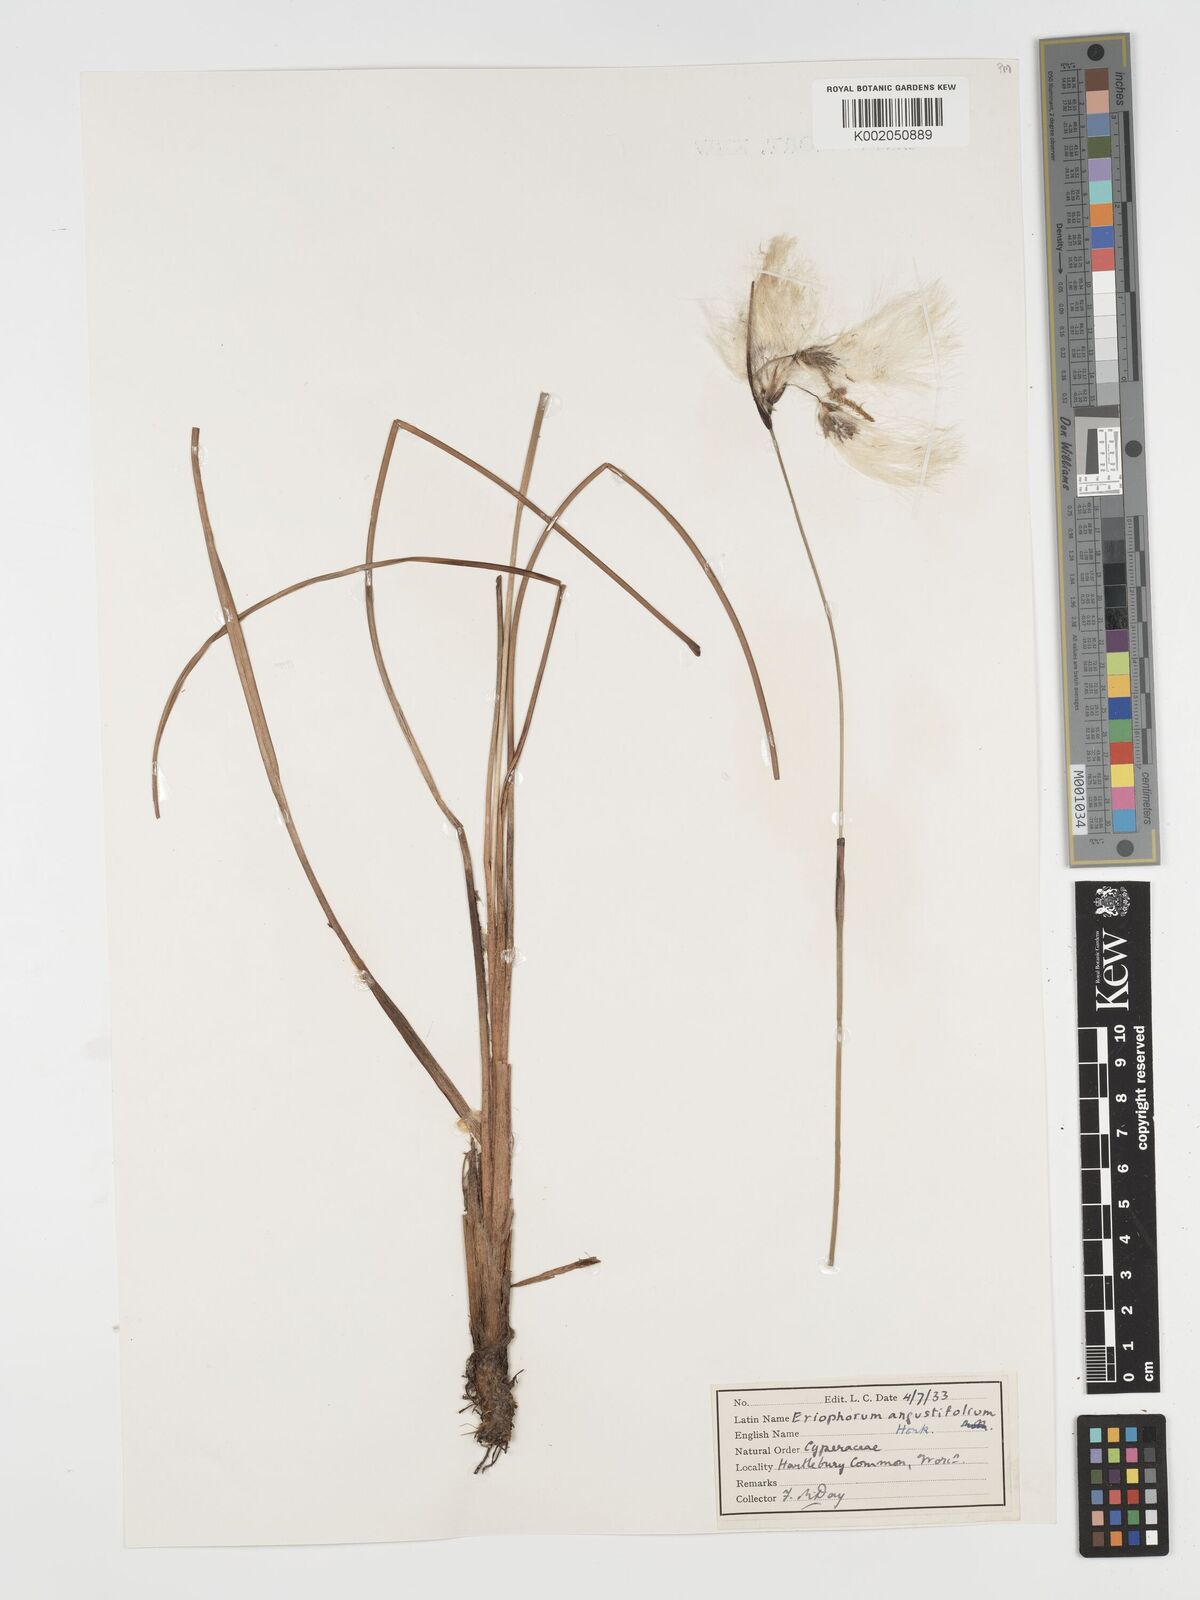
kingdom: Plantae
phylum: Tracheophyta
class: Liliopsida
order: Poales
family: Cyperaceae
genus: Eriophorum
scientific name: Eriophorum angustifolium
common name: Common cottongrass
